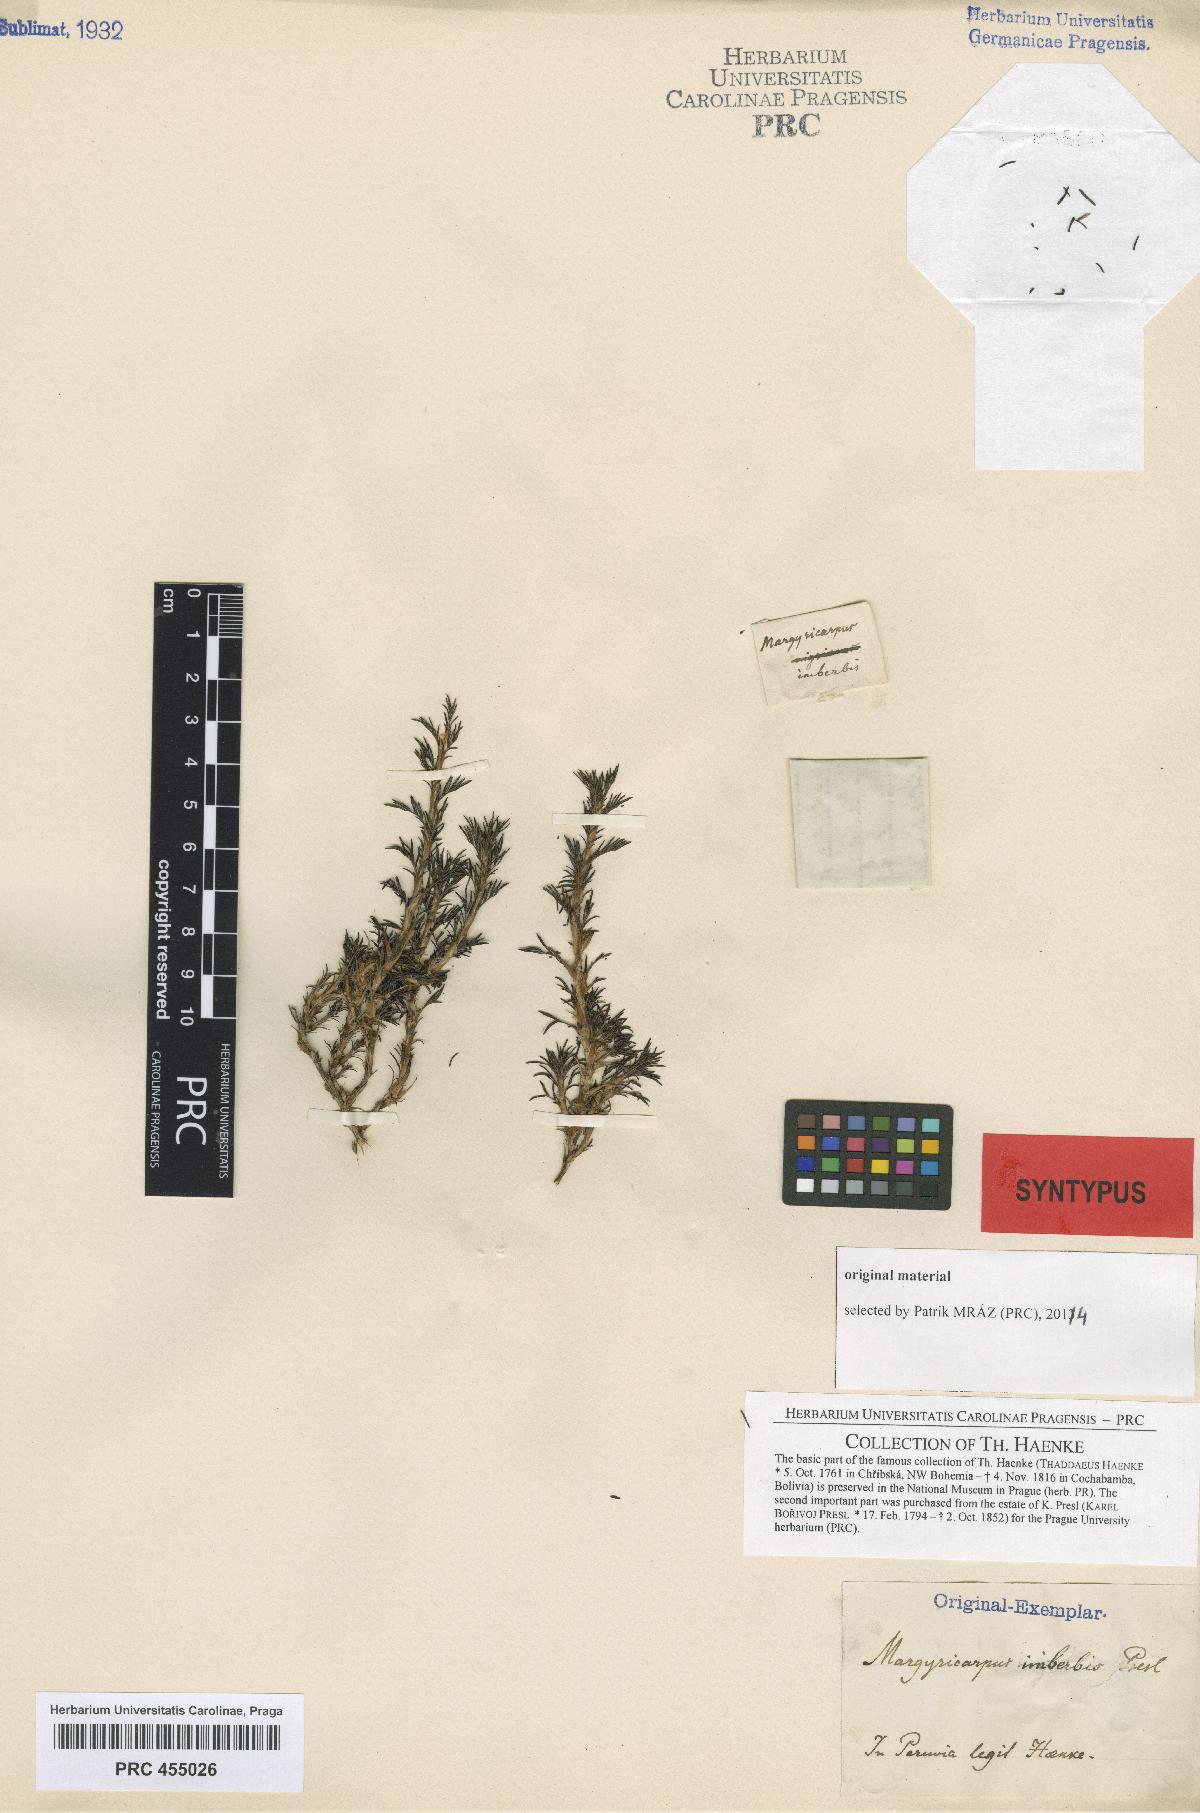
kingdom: Plantae
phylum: Tracheophyta
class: Magnoliopsida
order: Rosales
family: Rosaceae
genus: Margyricarpus
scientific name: Margyricarpus pinnatus
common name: Pearlfruit
